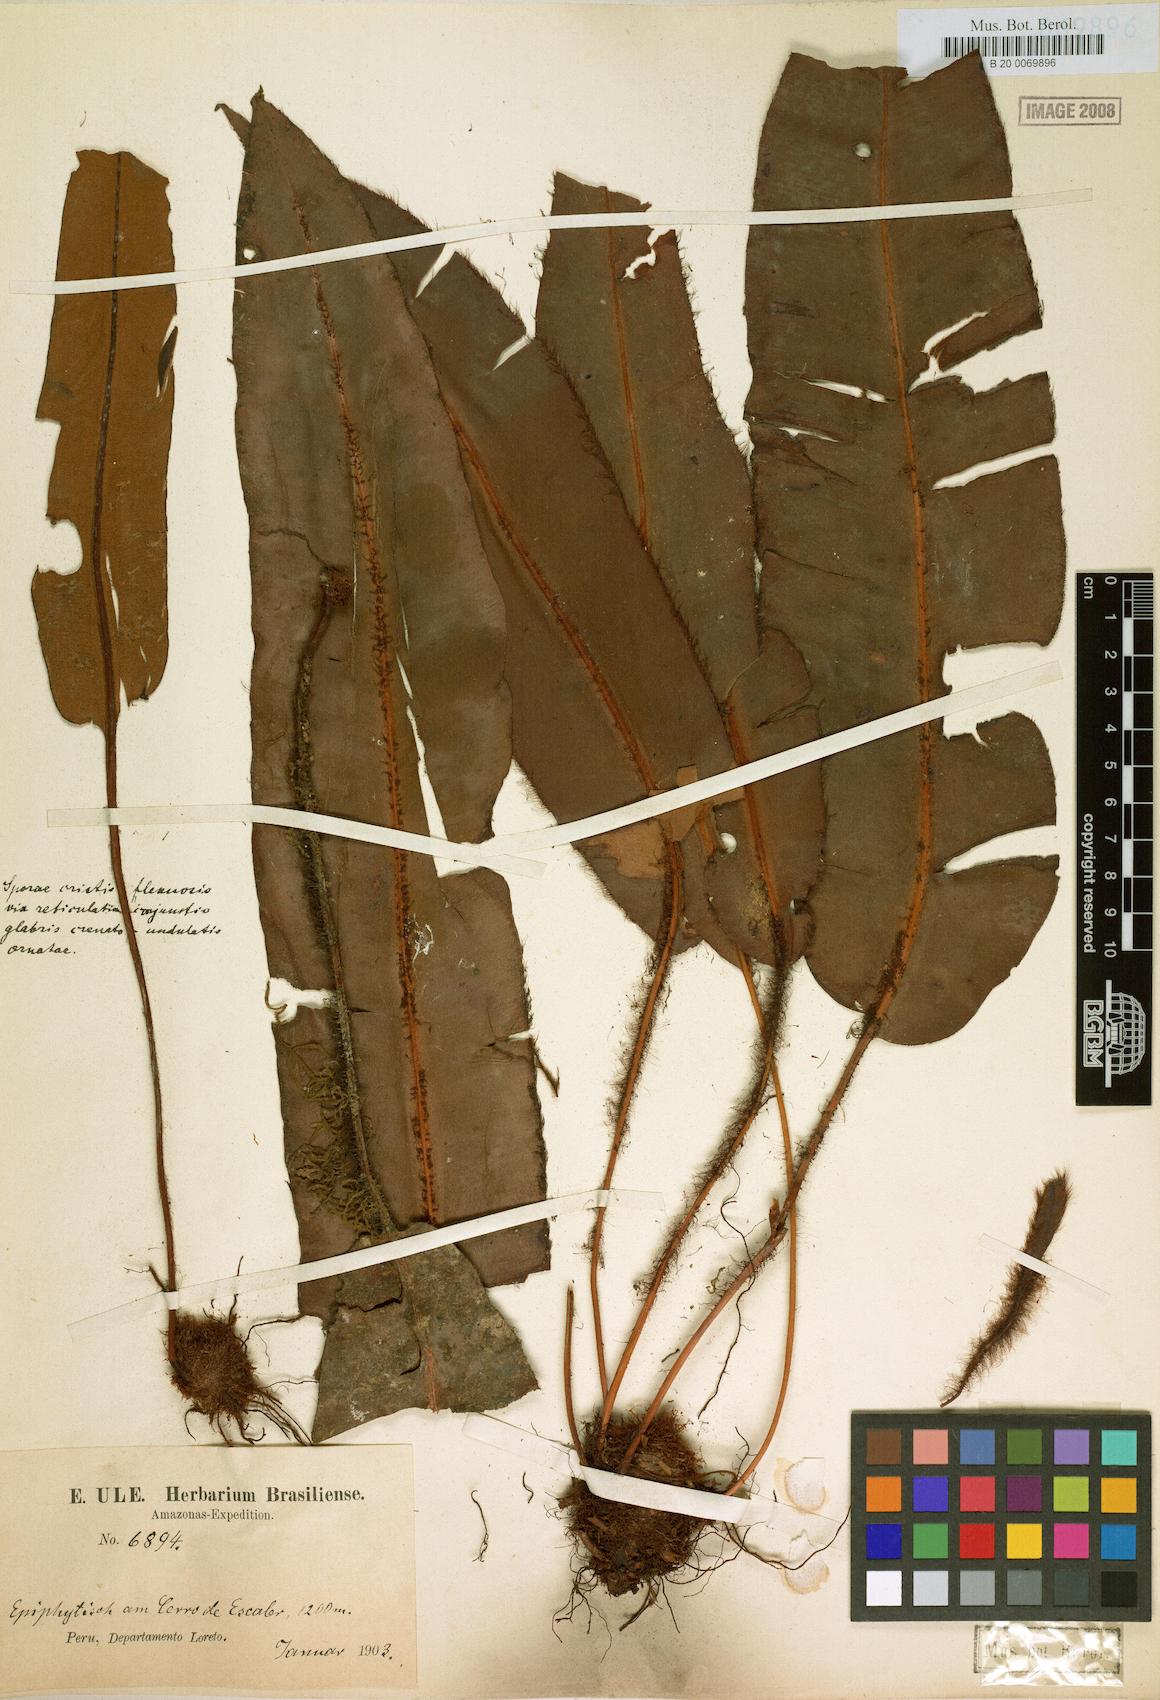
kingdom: Plantae
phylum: Tracheophyta
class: Polypodiopsida
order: Polypodiales
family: Dryopteridaceae
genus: Elaphoglossum
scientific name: Elaphoglossum barbatum
